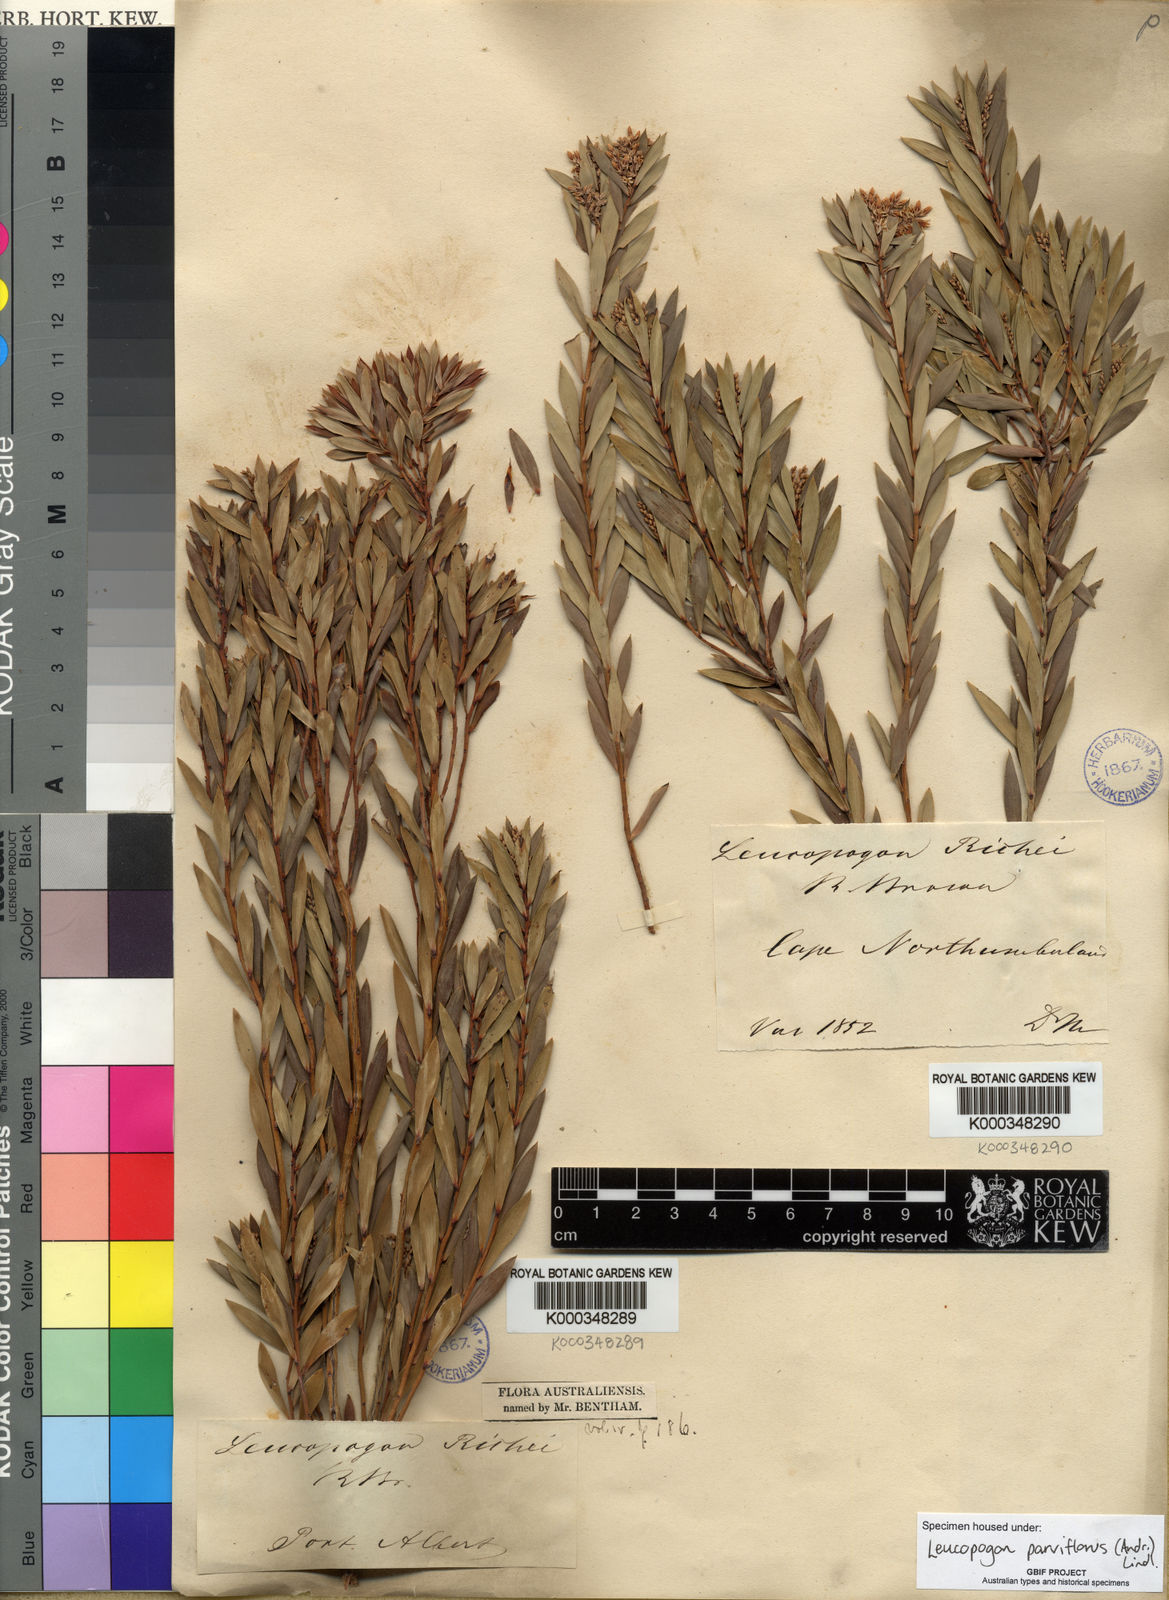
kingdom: Plantae
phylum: Tracheophyta
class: Magnoliopsida
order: Ericales
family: Ericaceae
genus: Leptecophylla
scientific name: Leptecophylla parvifolia
